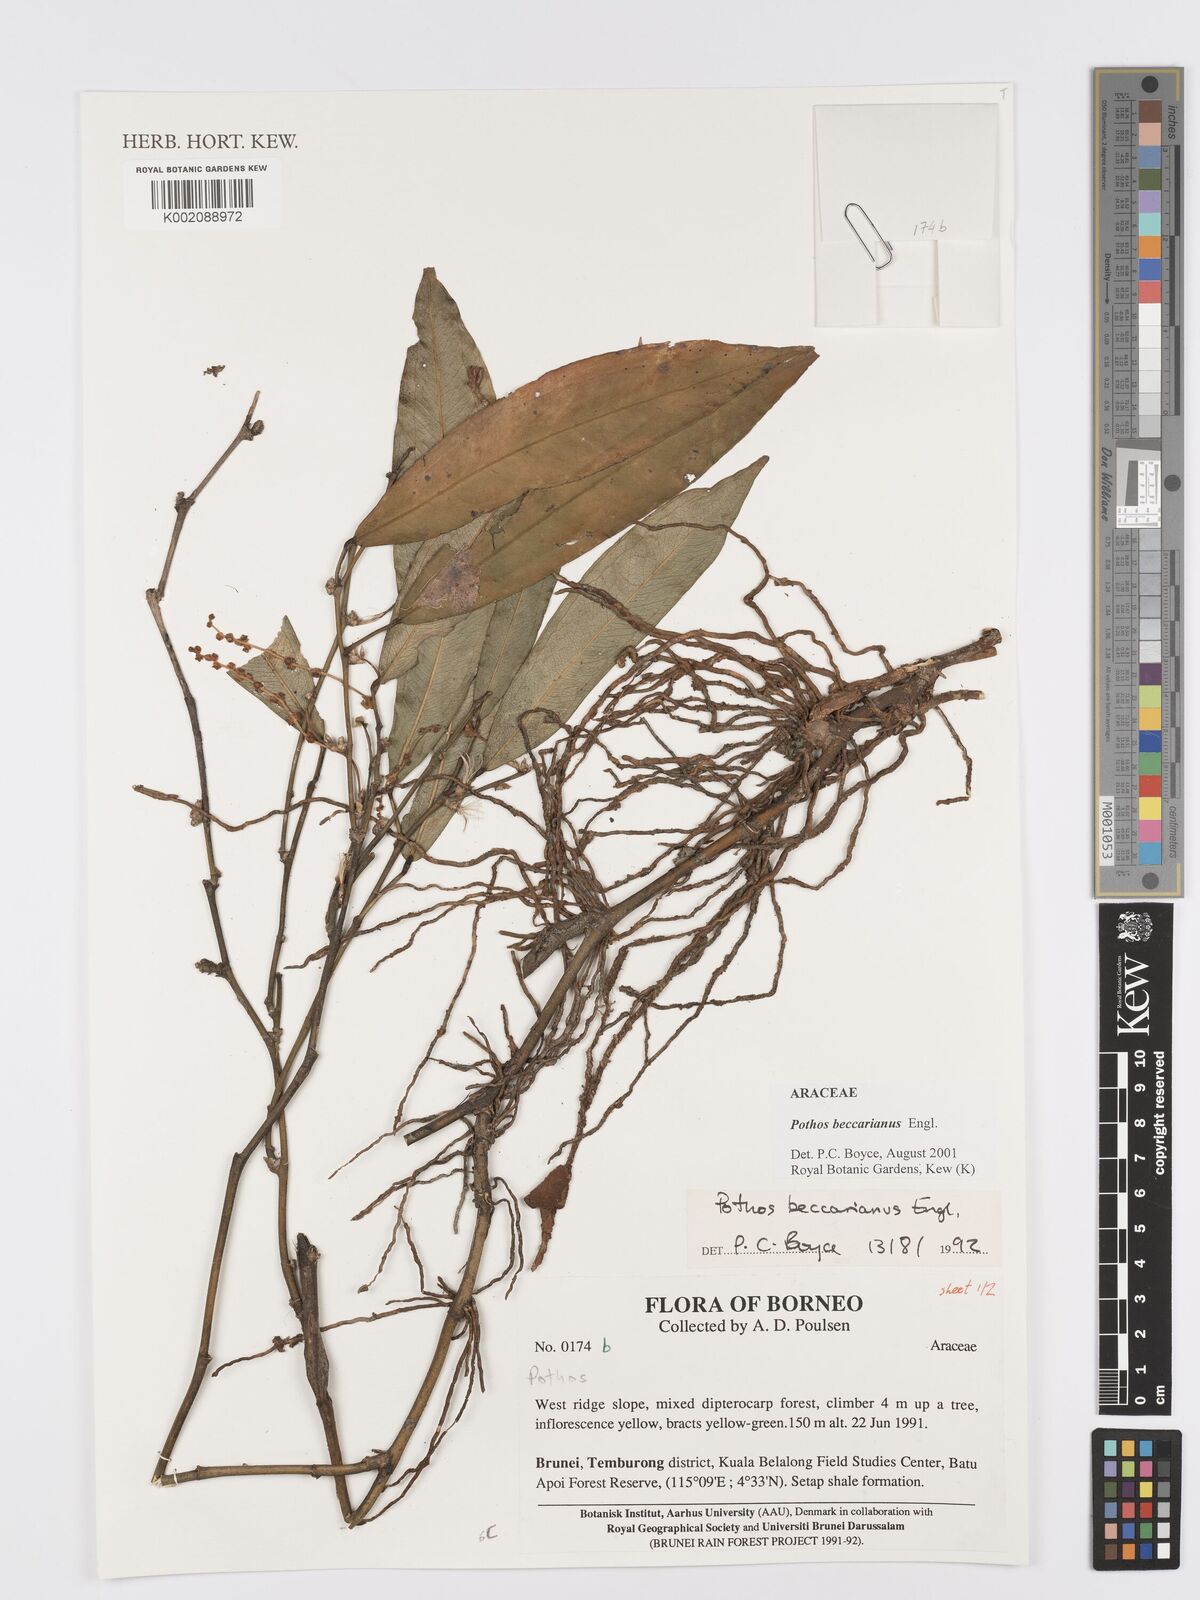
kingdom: Plantae
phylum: Tracheophyta
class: Liliopsida
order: Alismatales
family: Araceae
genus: Pothos
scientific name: Pothos beccarianus
